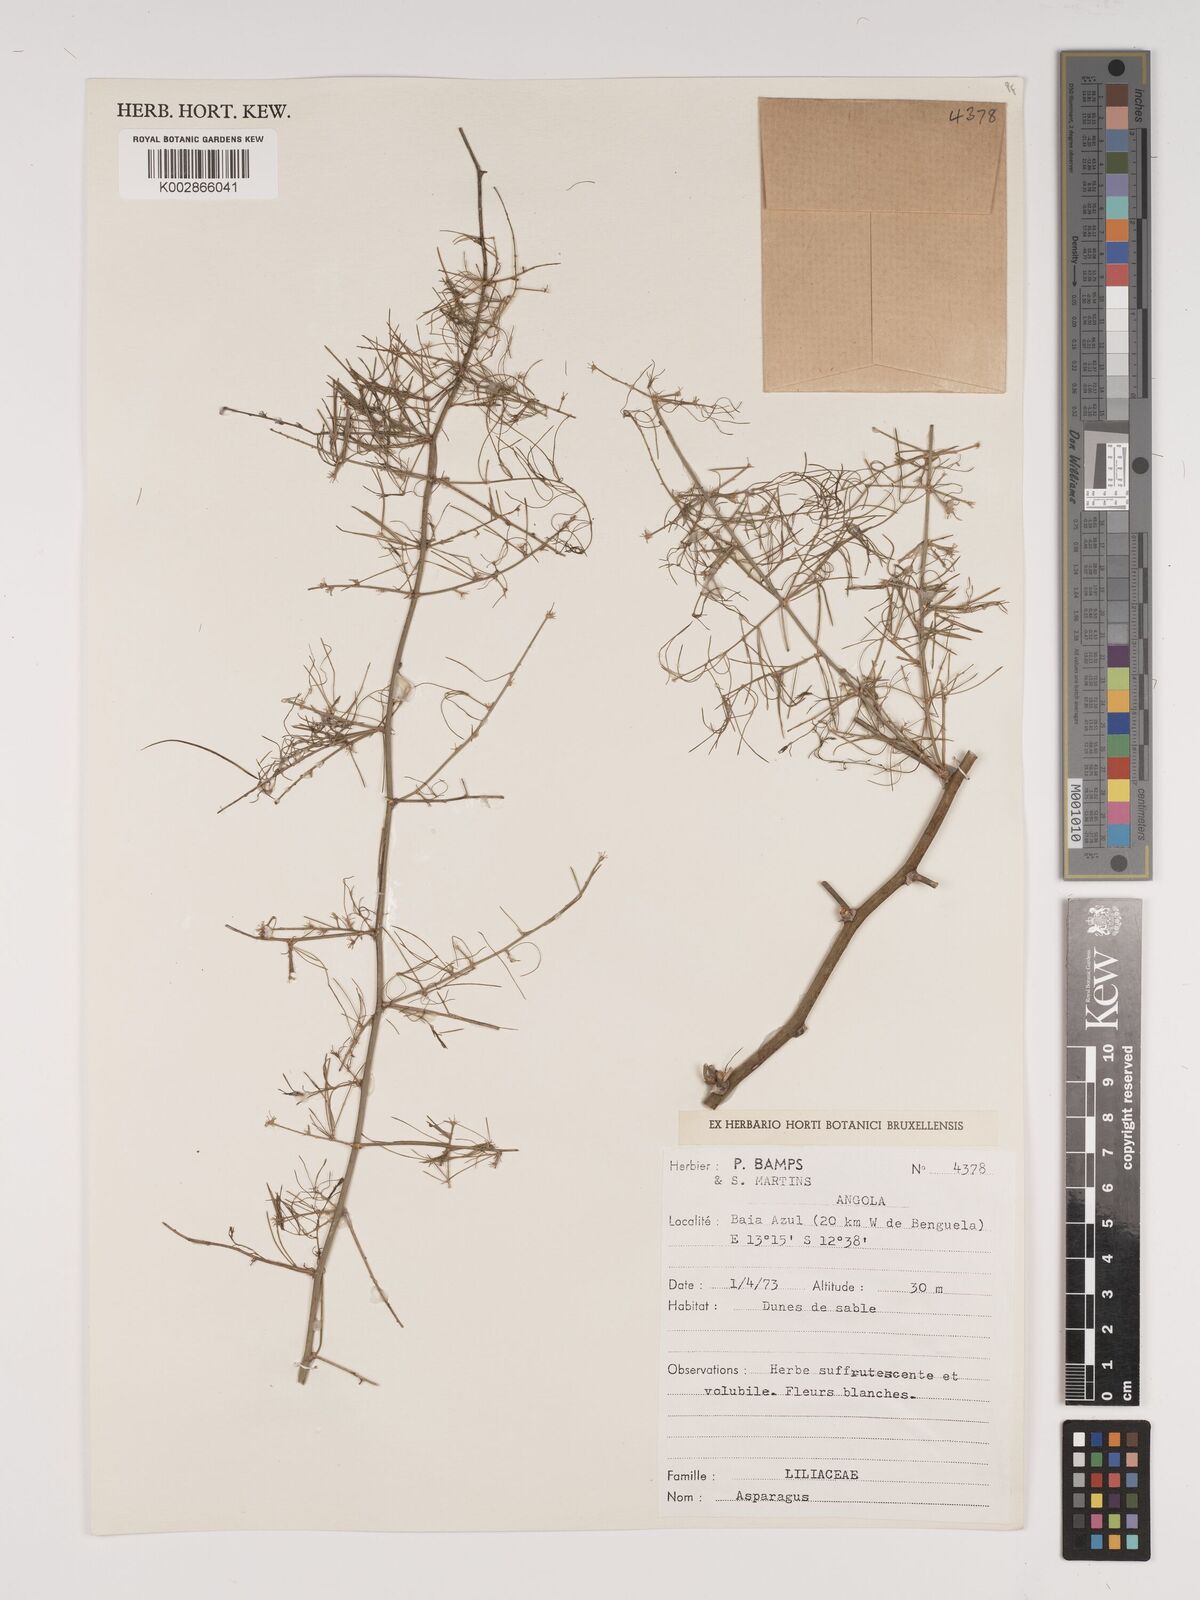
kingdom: Plantae
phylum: Tracheophyta
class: Liliopsida
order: Asparagales
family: Asparagaceae
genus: Asparagus
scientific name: Asparagus
